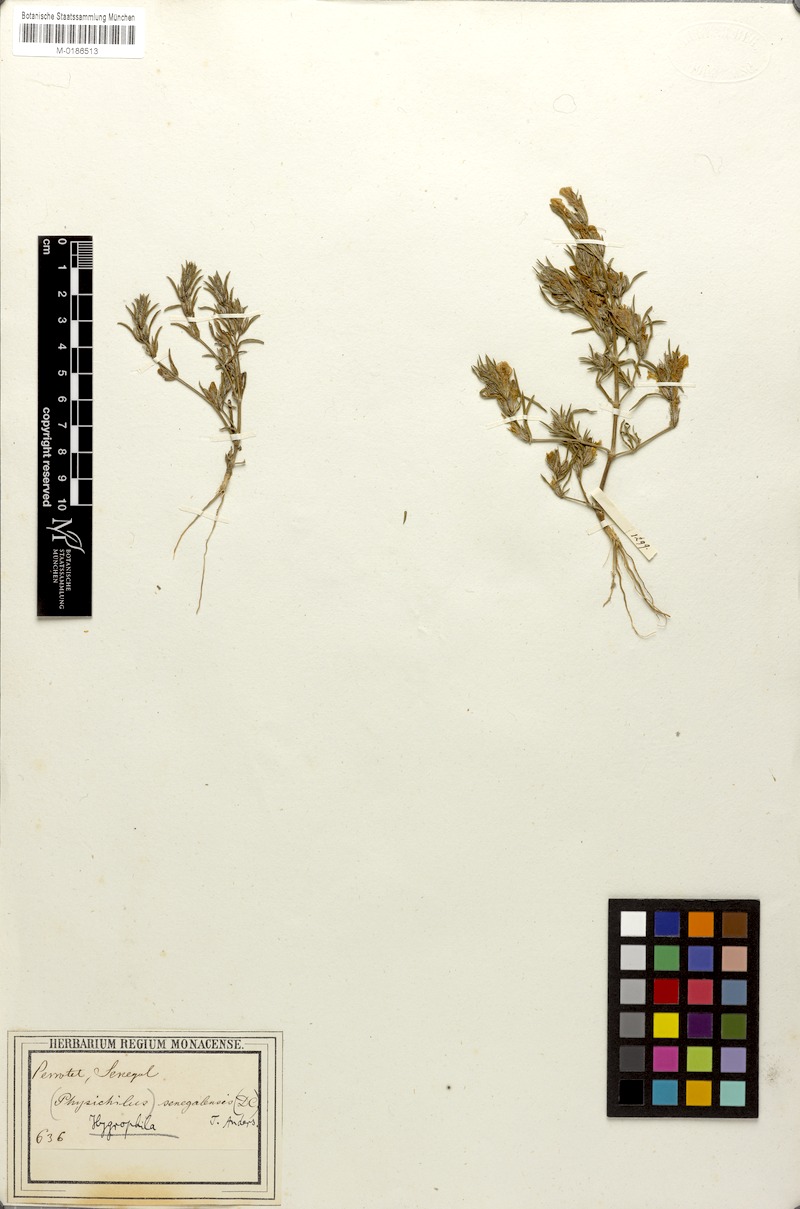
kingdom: Plantae
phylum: Tracheophyta
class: Magnoliopsida
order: Lamiales
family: Acanthaceae
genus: Hygrophila
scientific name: Hygrophila micrantha
